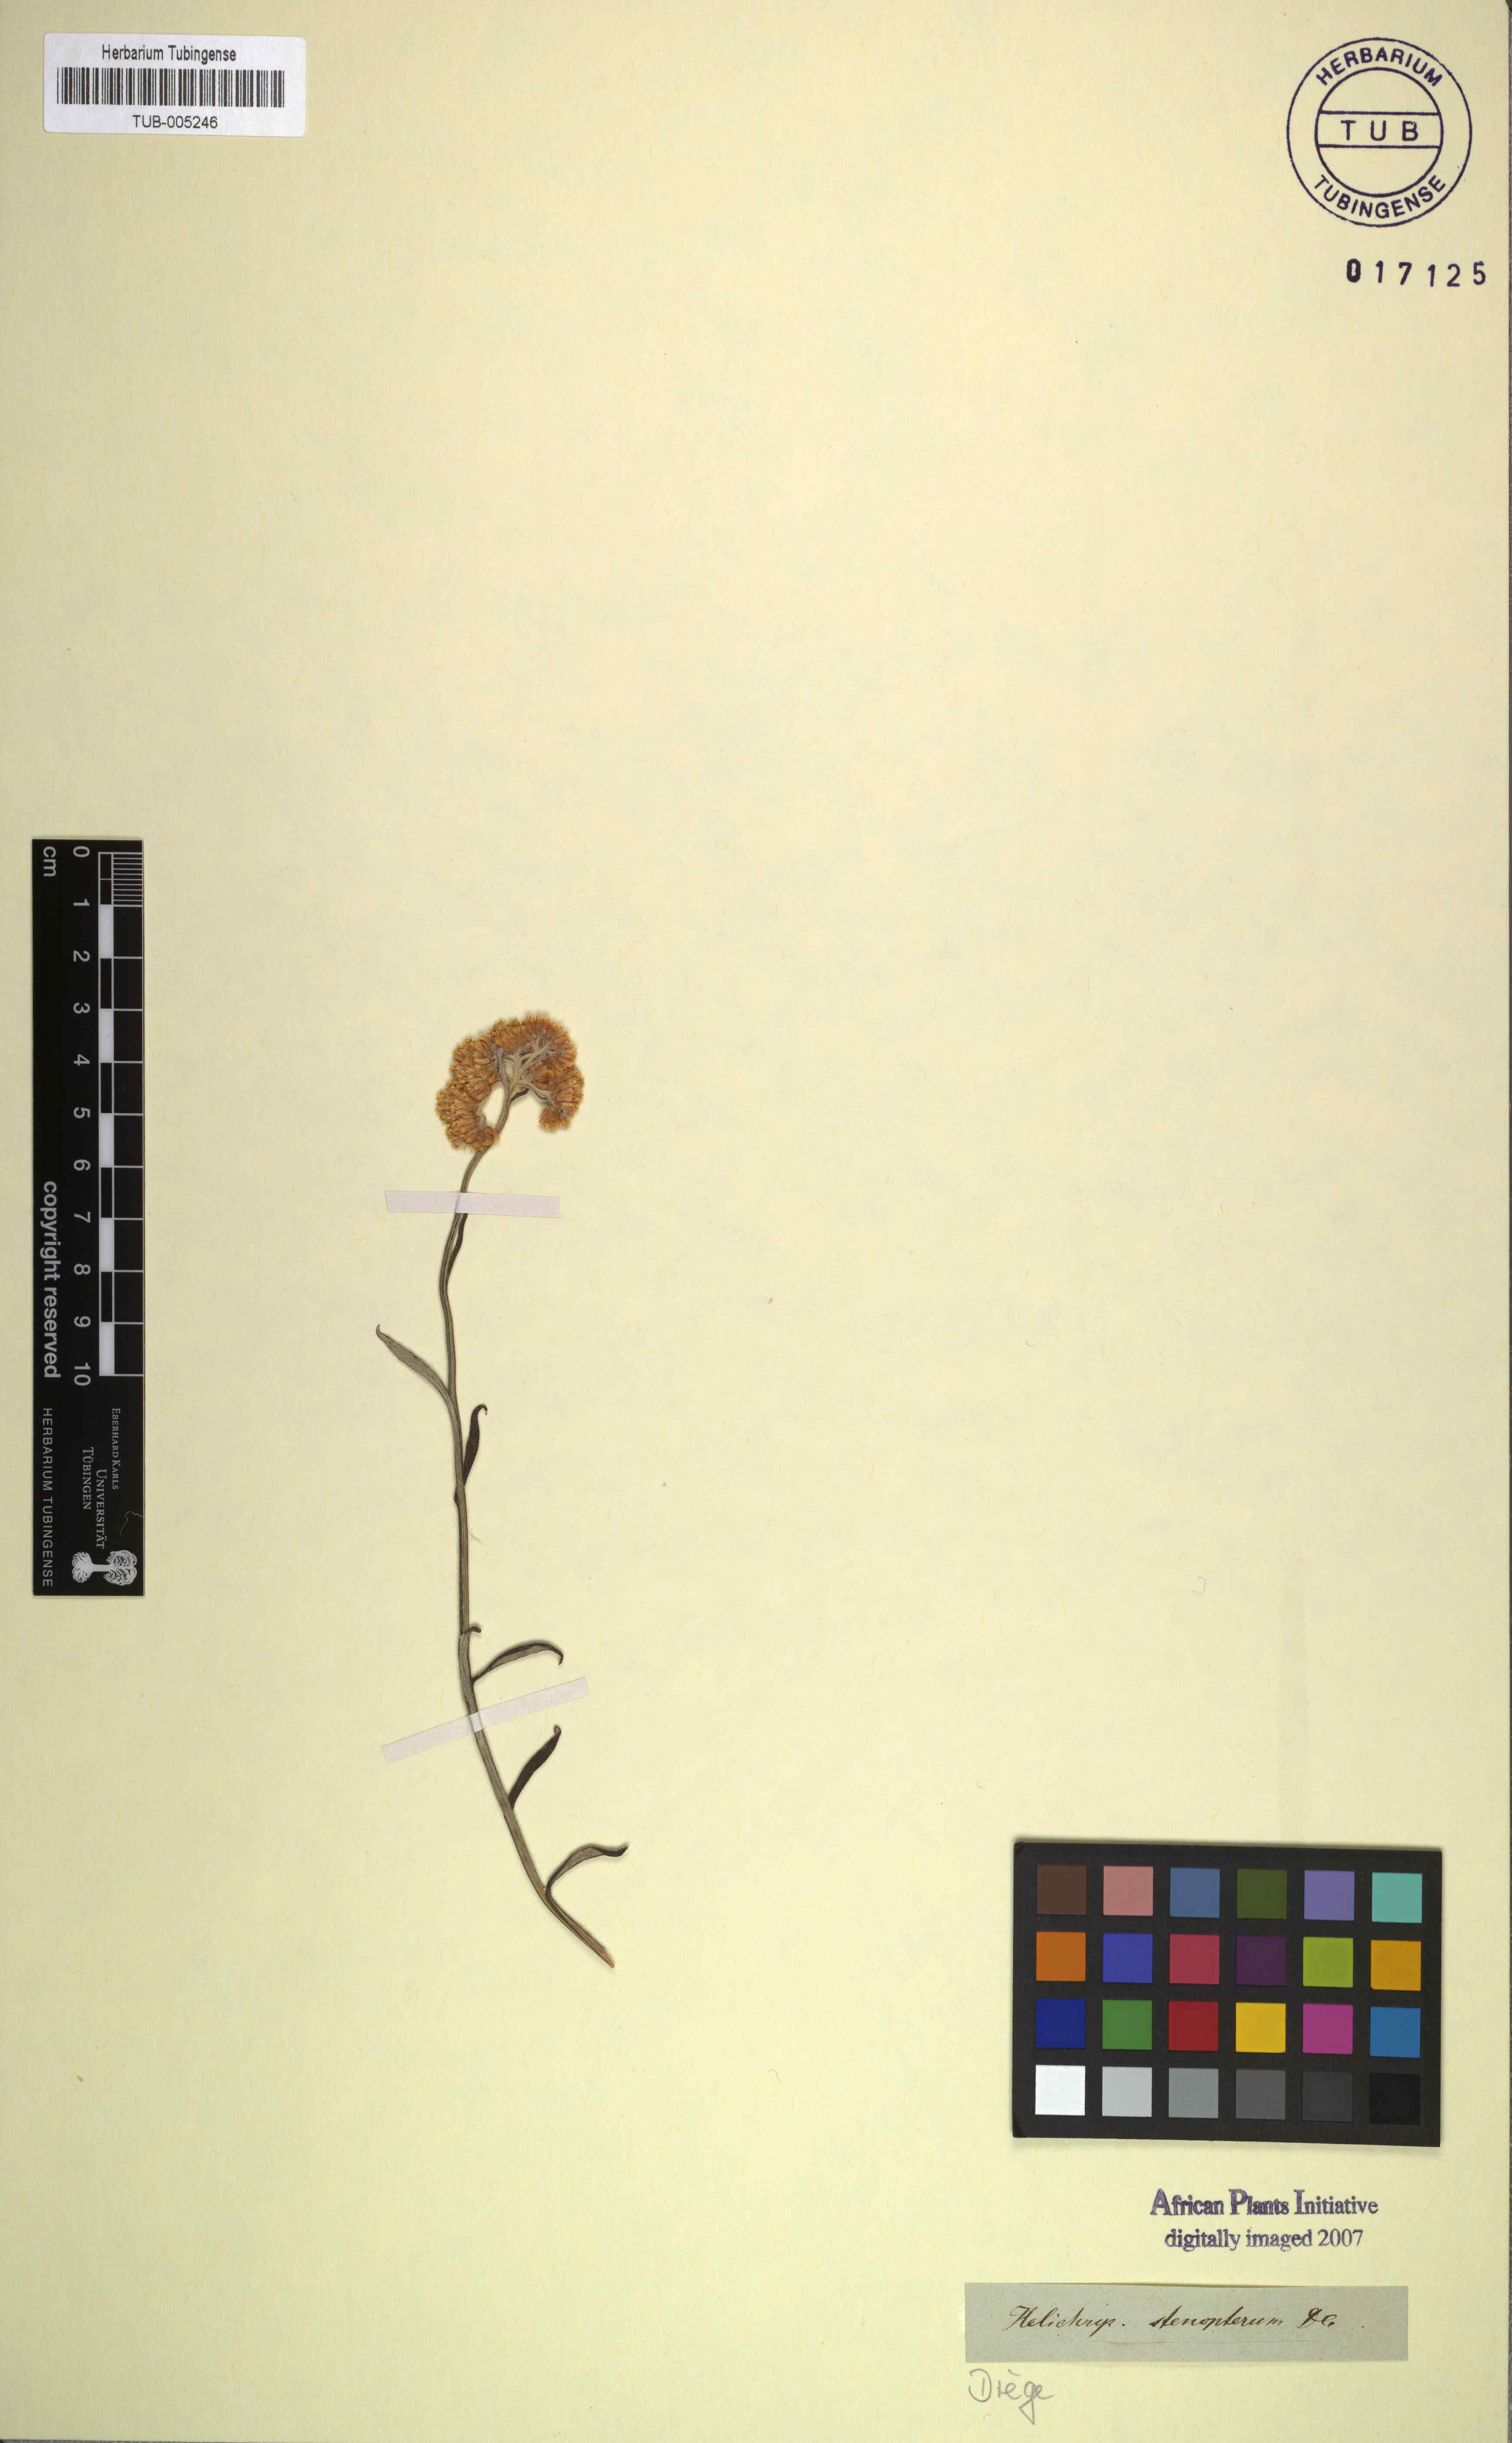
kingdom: Plantae
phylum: Tracheophyta
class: Magnoliopsida
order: Asterales
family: Asteraceae
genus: Helichrysum
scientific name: Helichrysum stenopterum
